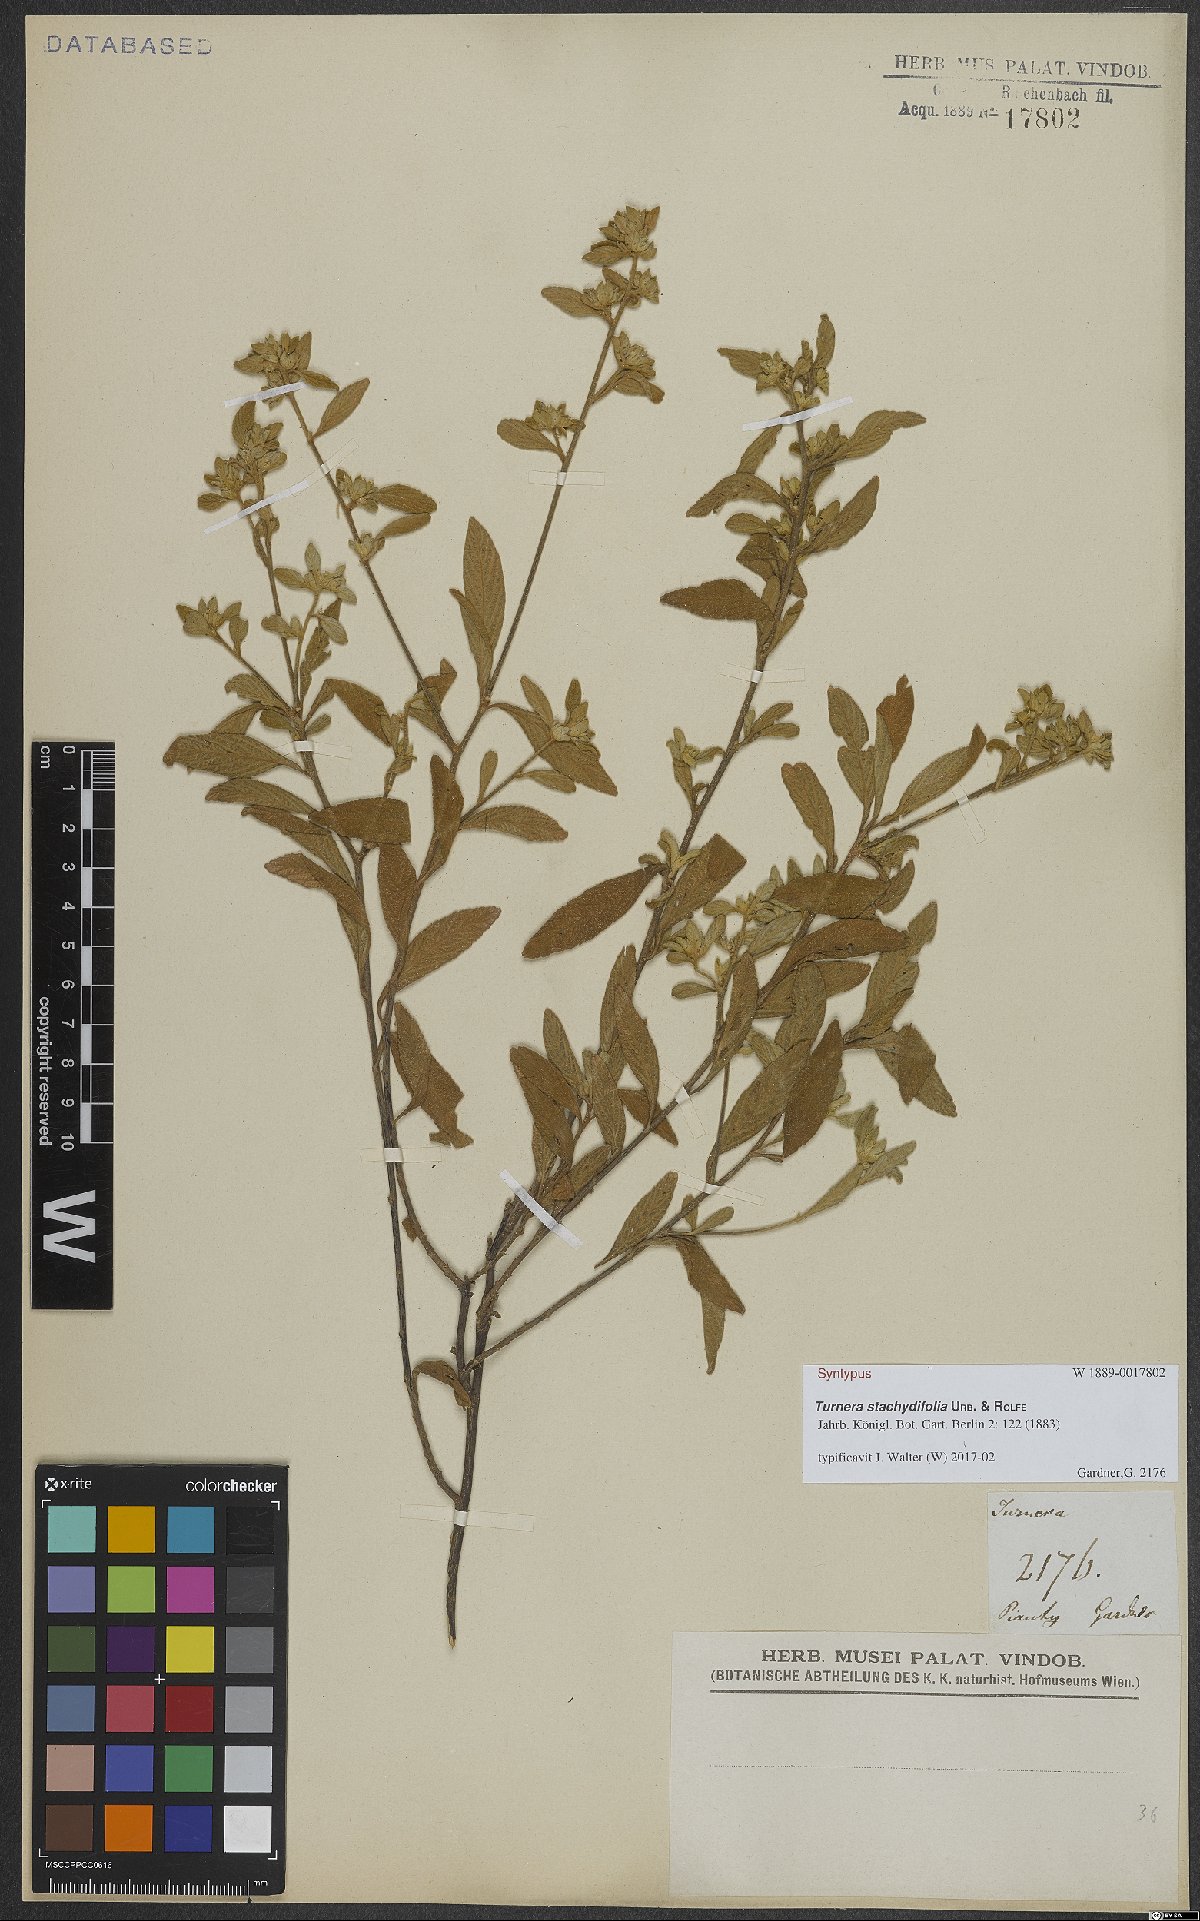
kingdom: Plantae
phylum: Tracheophyta
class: Magnoliopsida
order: Malpighiales
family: Turneraceae
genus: Turnera
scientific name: Turnera stachydifolia
